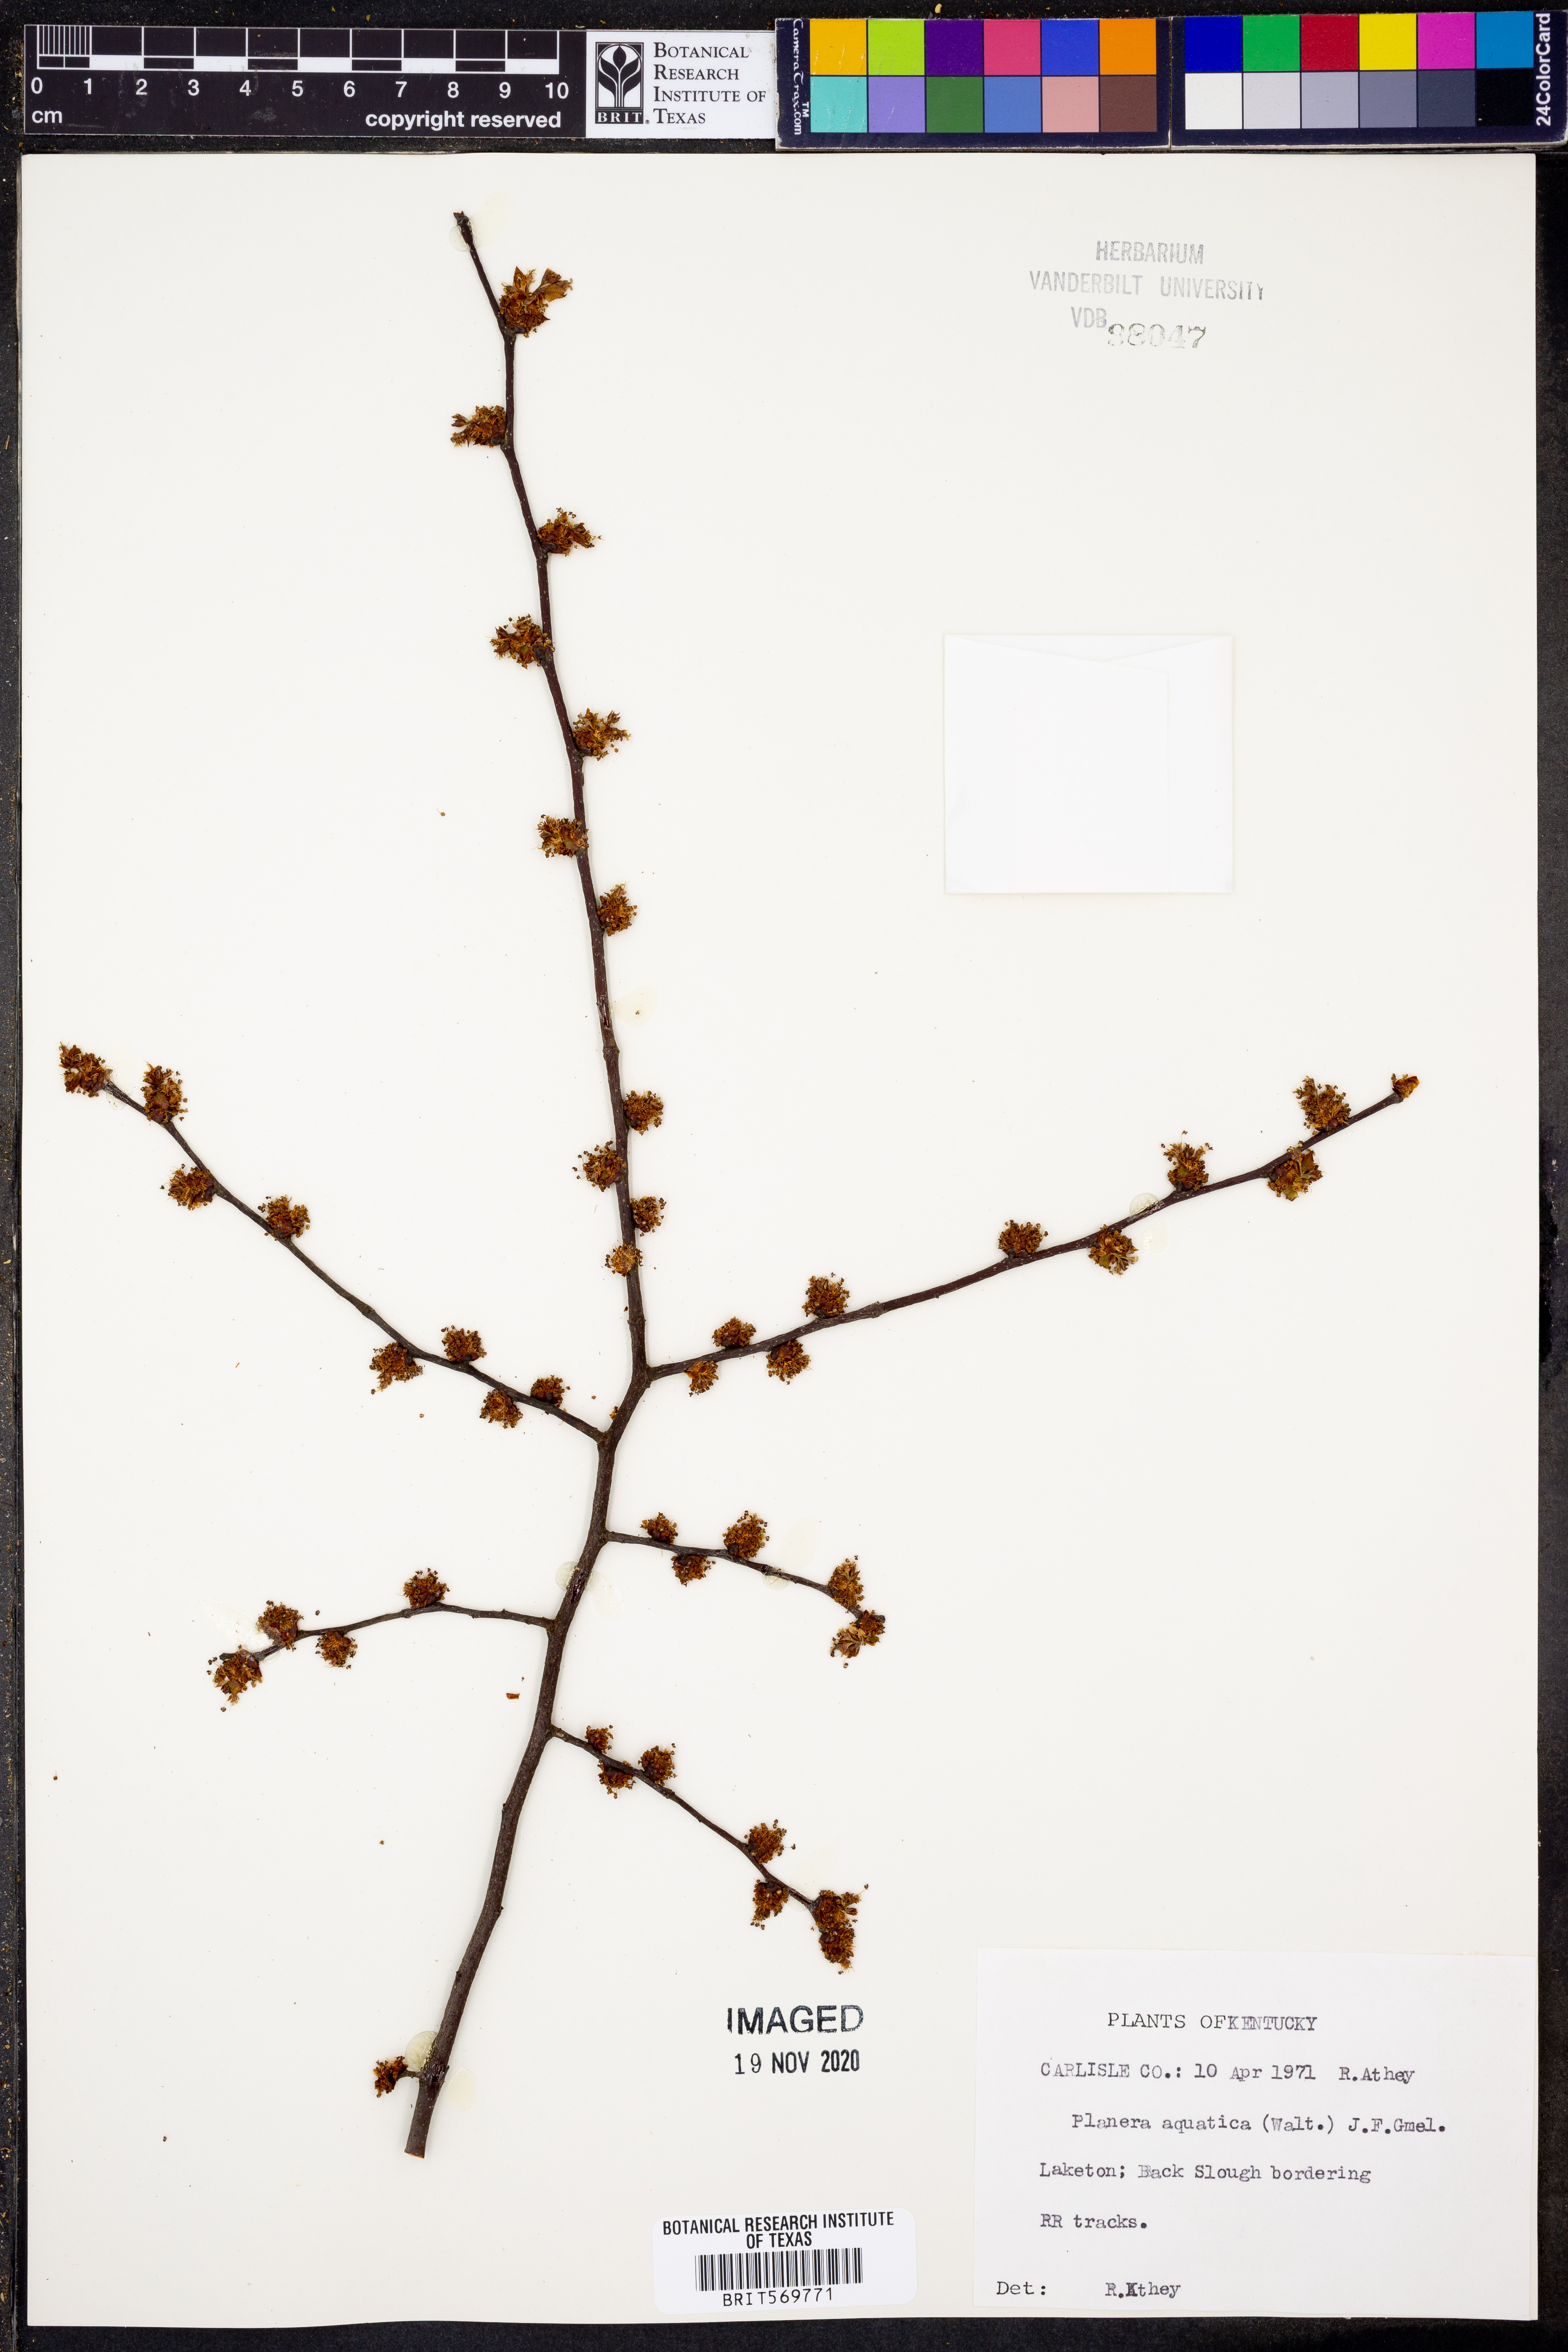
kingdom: Plantae
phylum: Tracheophyta
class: Magnoliopsida
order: Rosales
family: Ulmaceae
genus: Planera
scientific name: Planera aquatica
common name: Water-elm
